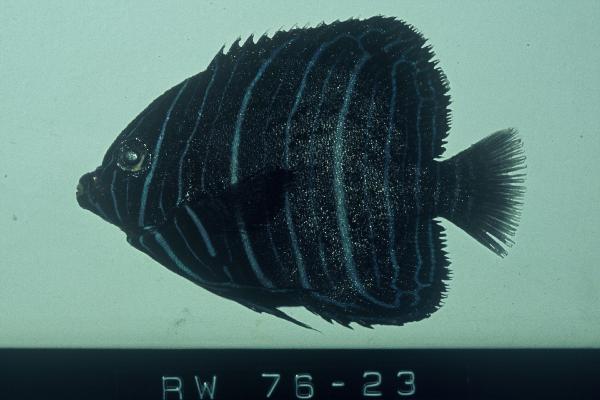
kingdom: Animalia
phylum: Chordata
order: Perciformes
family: Pomacanthidae
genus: Pomacanthus
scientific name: Pomacanthus rhomboides
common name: Old woman
